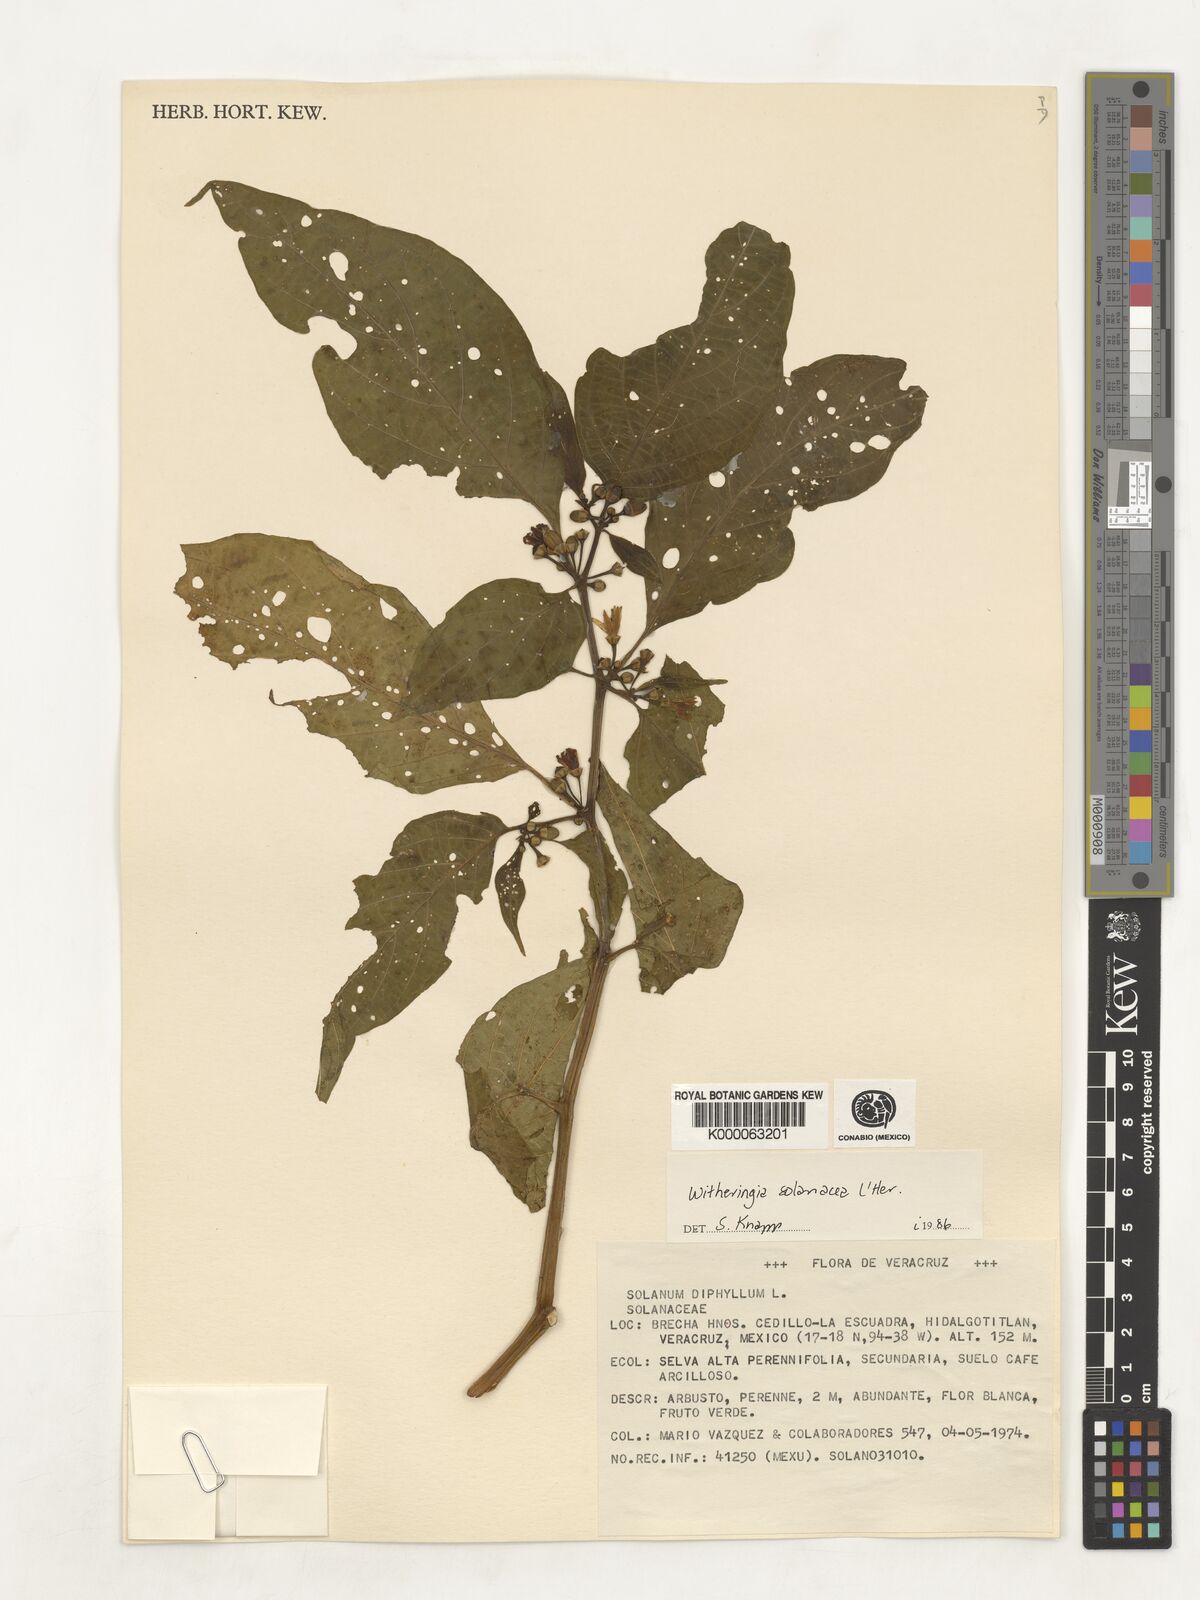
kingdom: Plantae
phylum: Tracheophyta
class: Magnoliopsida
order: Solanales
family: Solanaceae
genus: Witheringia
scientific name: Witheringia
